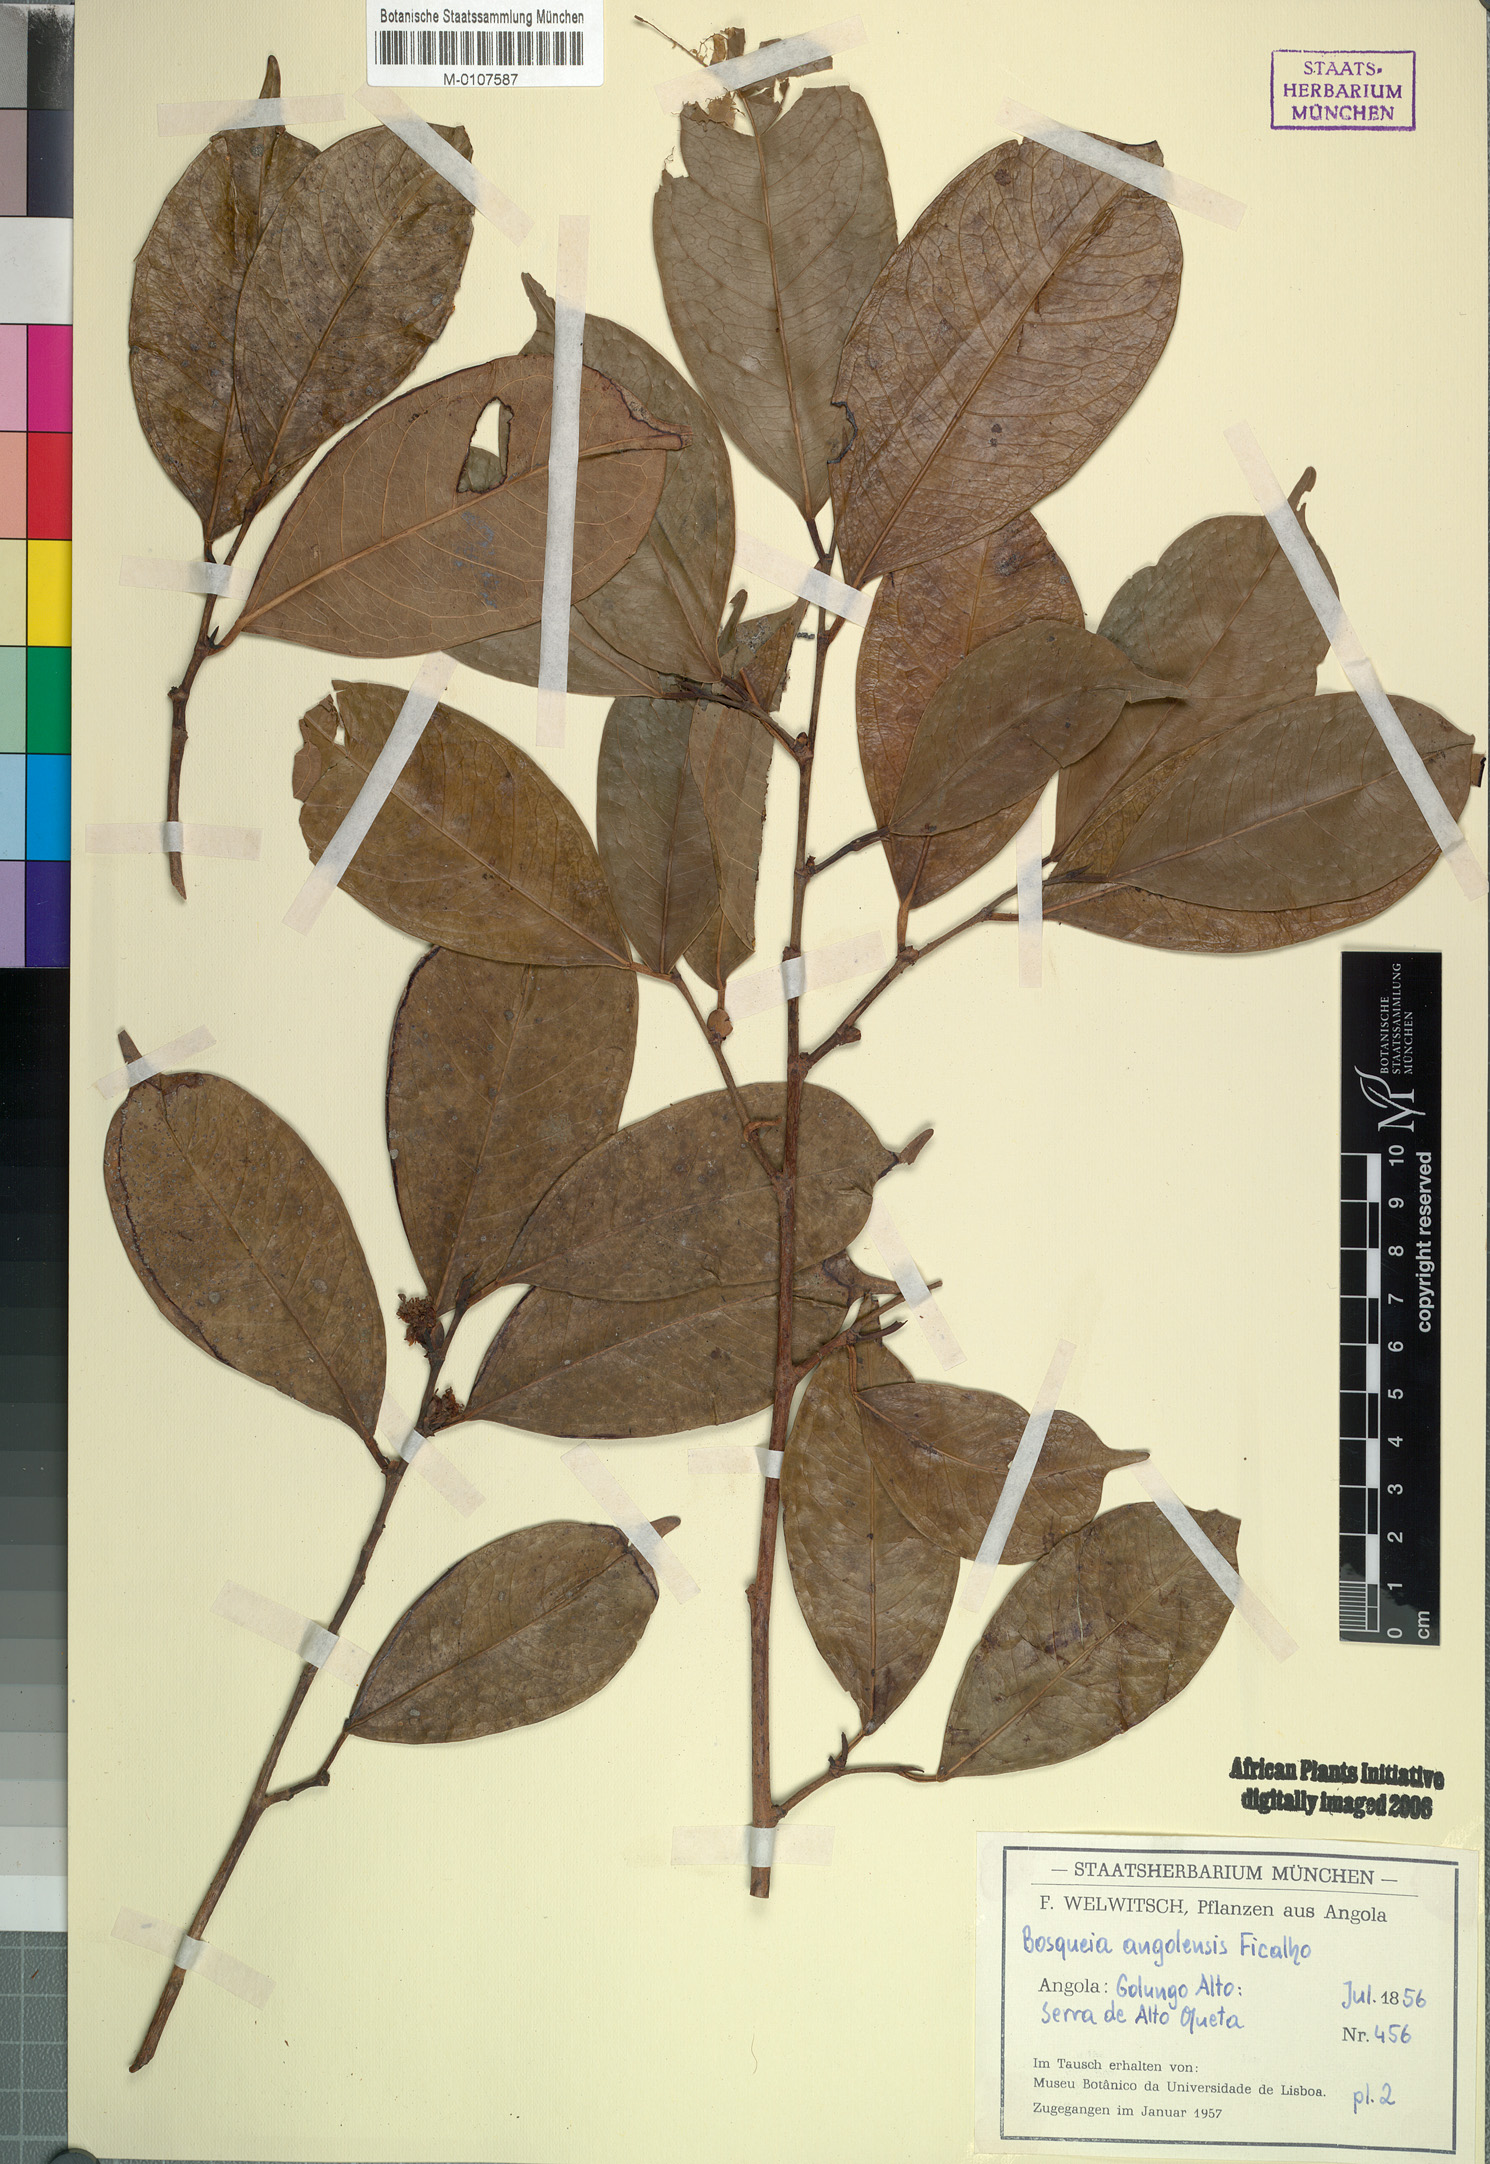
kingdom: Plantae
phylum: Tracheophyta
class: Magnoliopsida
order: Rosales
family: Moraceae
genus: Trilepisium
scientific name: Trilepisium madagascariense
